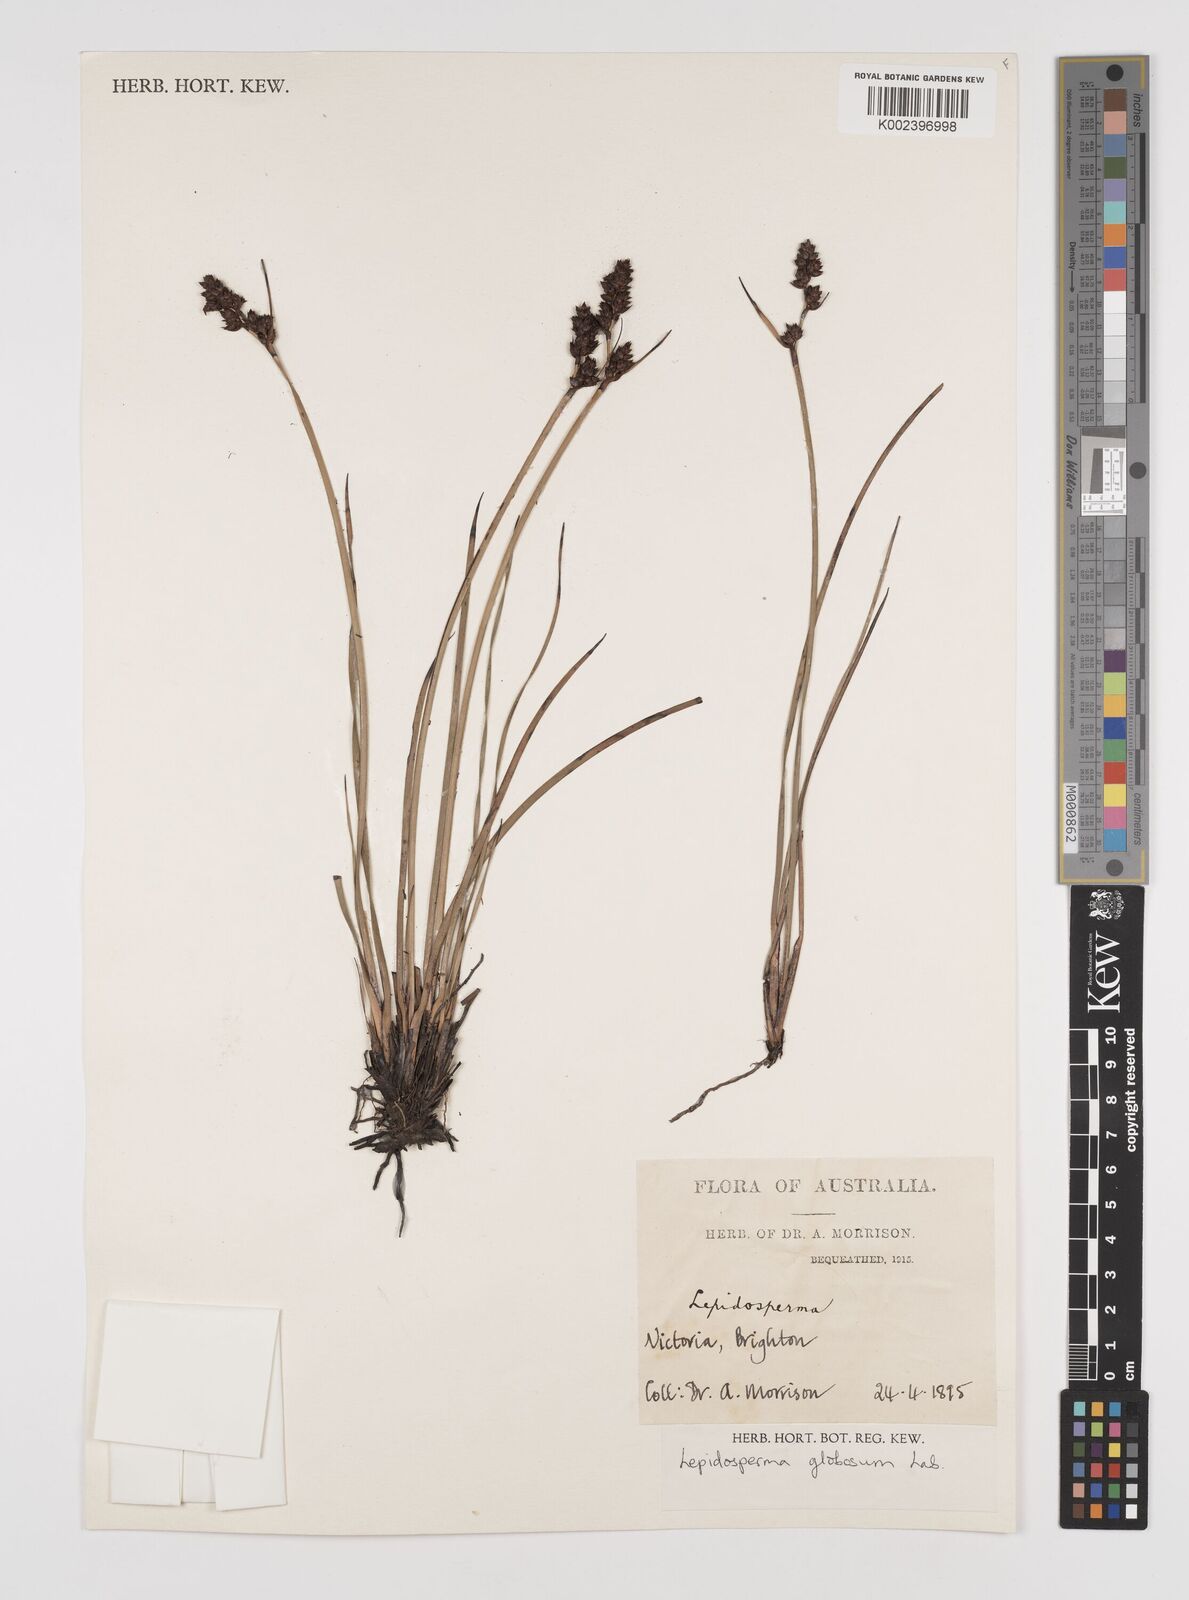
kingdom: Plantae
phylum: Tracheophyta
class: Liliopsida
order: Poales
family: Cyperaceae
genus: Lepidosperma
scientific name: Lepidosperma globosum
